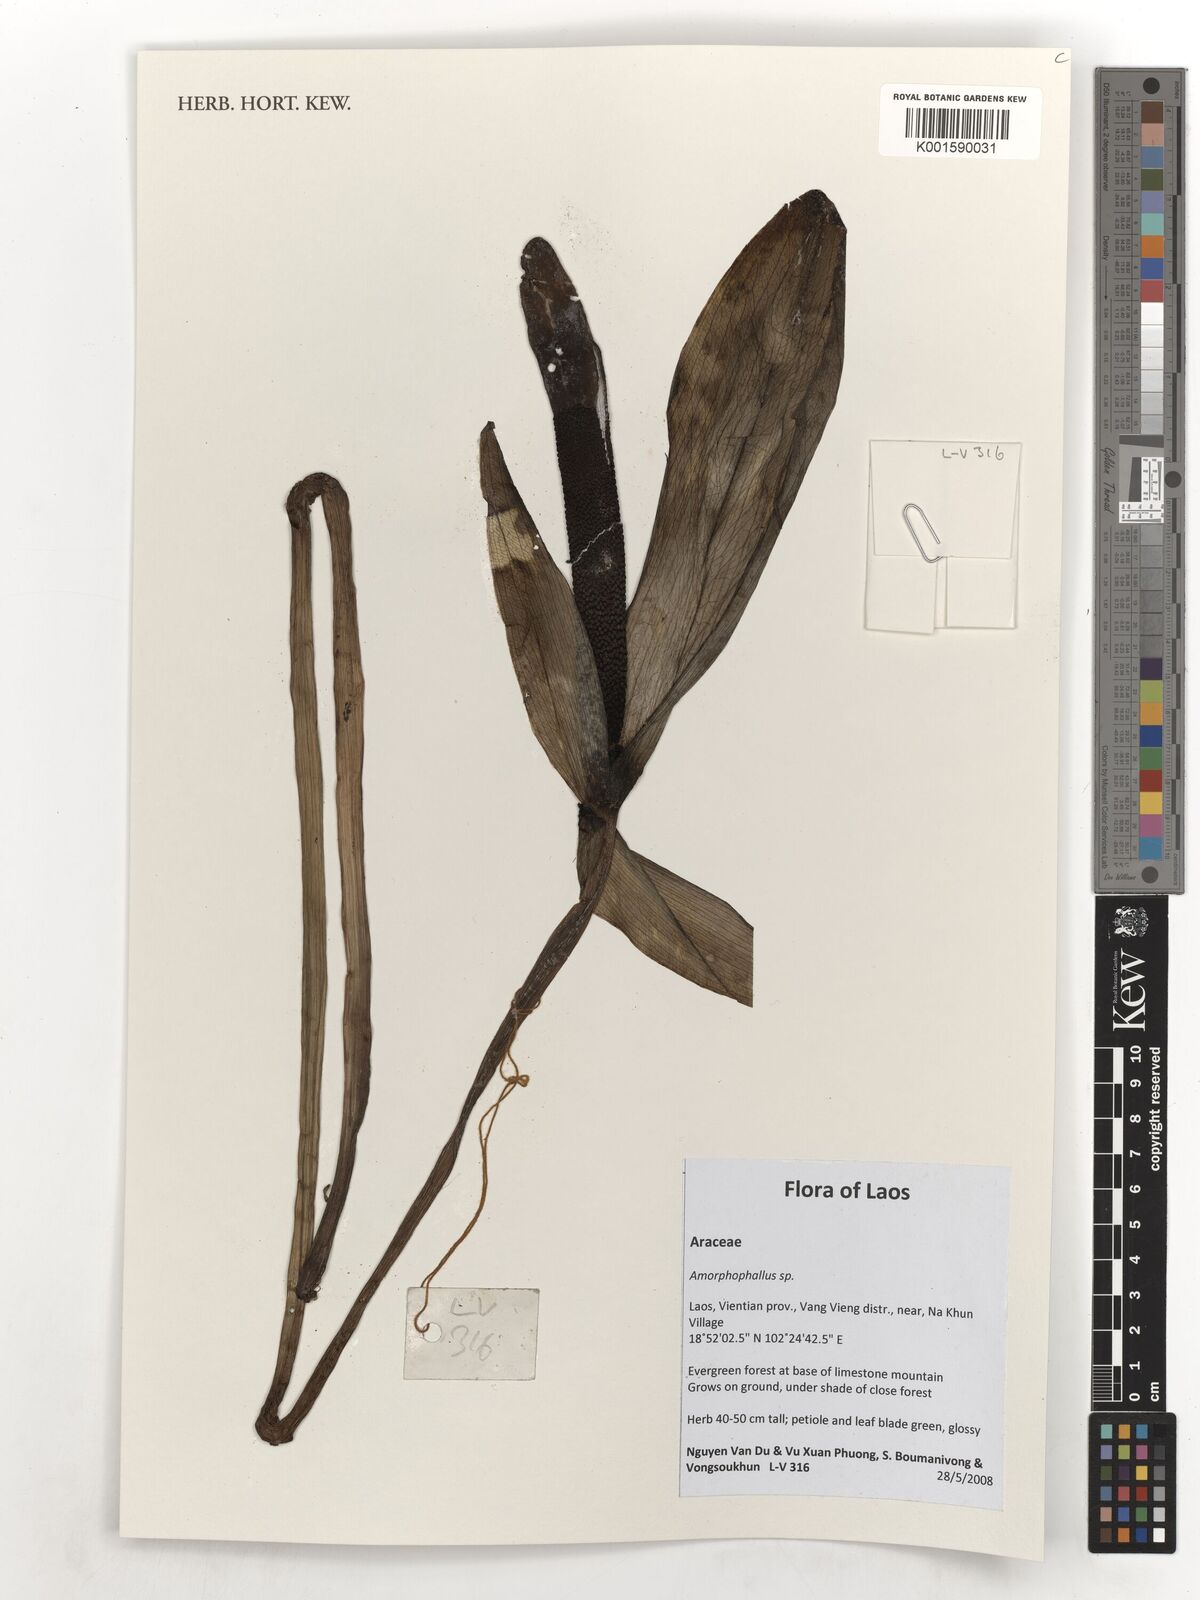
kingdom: Plantae
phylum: Tracheophyta
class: Liliopsida
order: Alismatales
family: Araceae
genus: Amorphophallus
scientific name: Amorphophallus
